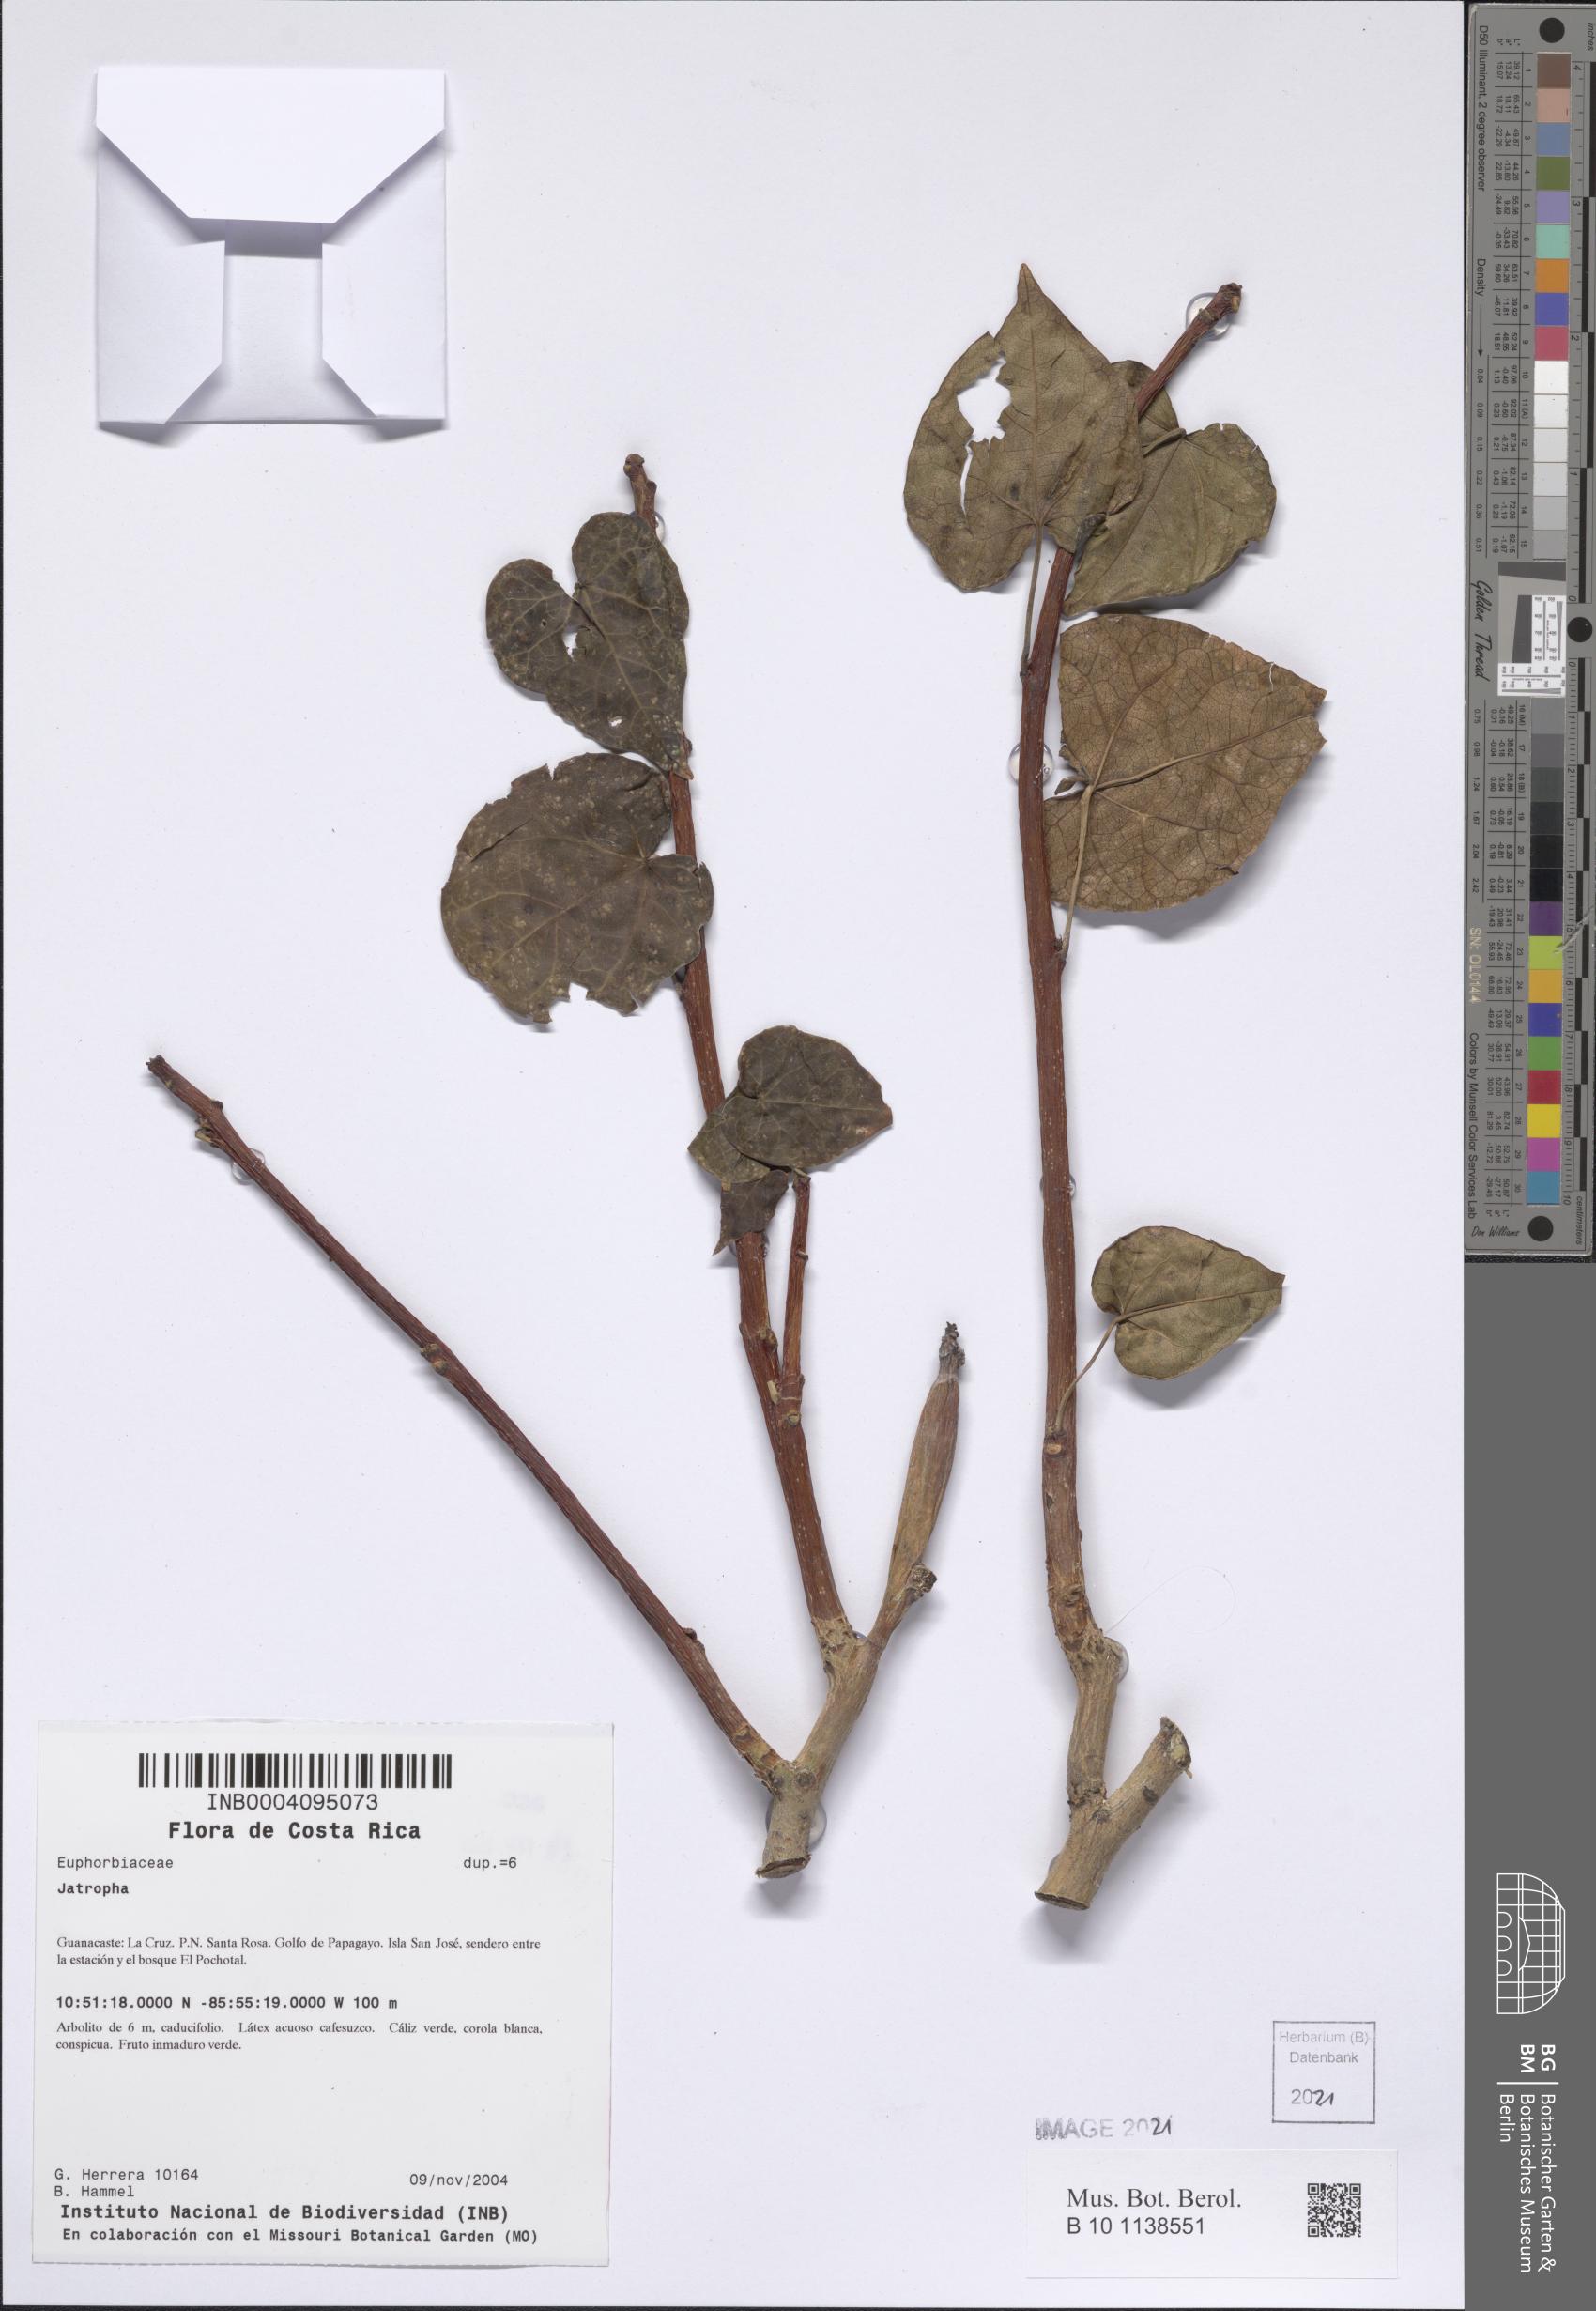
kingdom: Plantae
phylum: Tracheophyta
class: Magnoliopsida
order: Malpighiales
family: Euphorbiaceae
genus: Jatropha
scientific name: Jatropha stevensii
